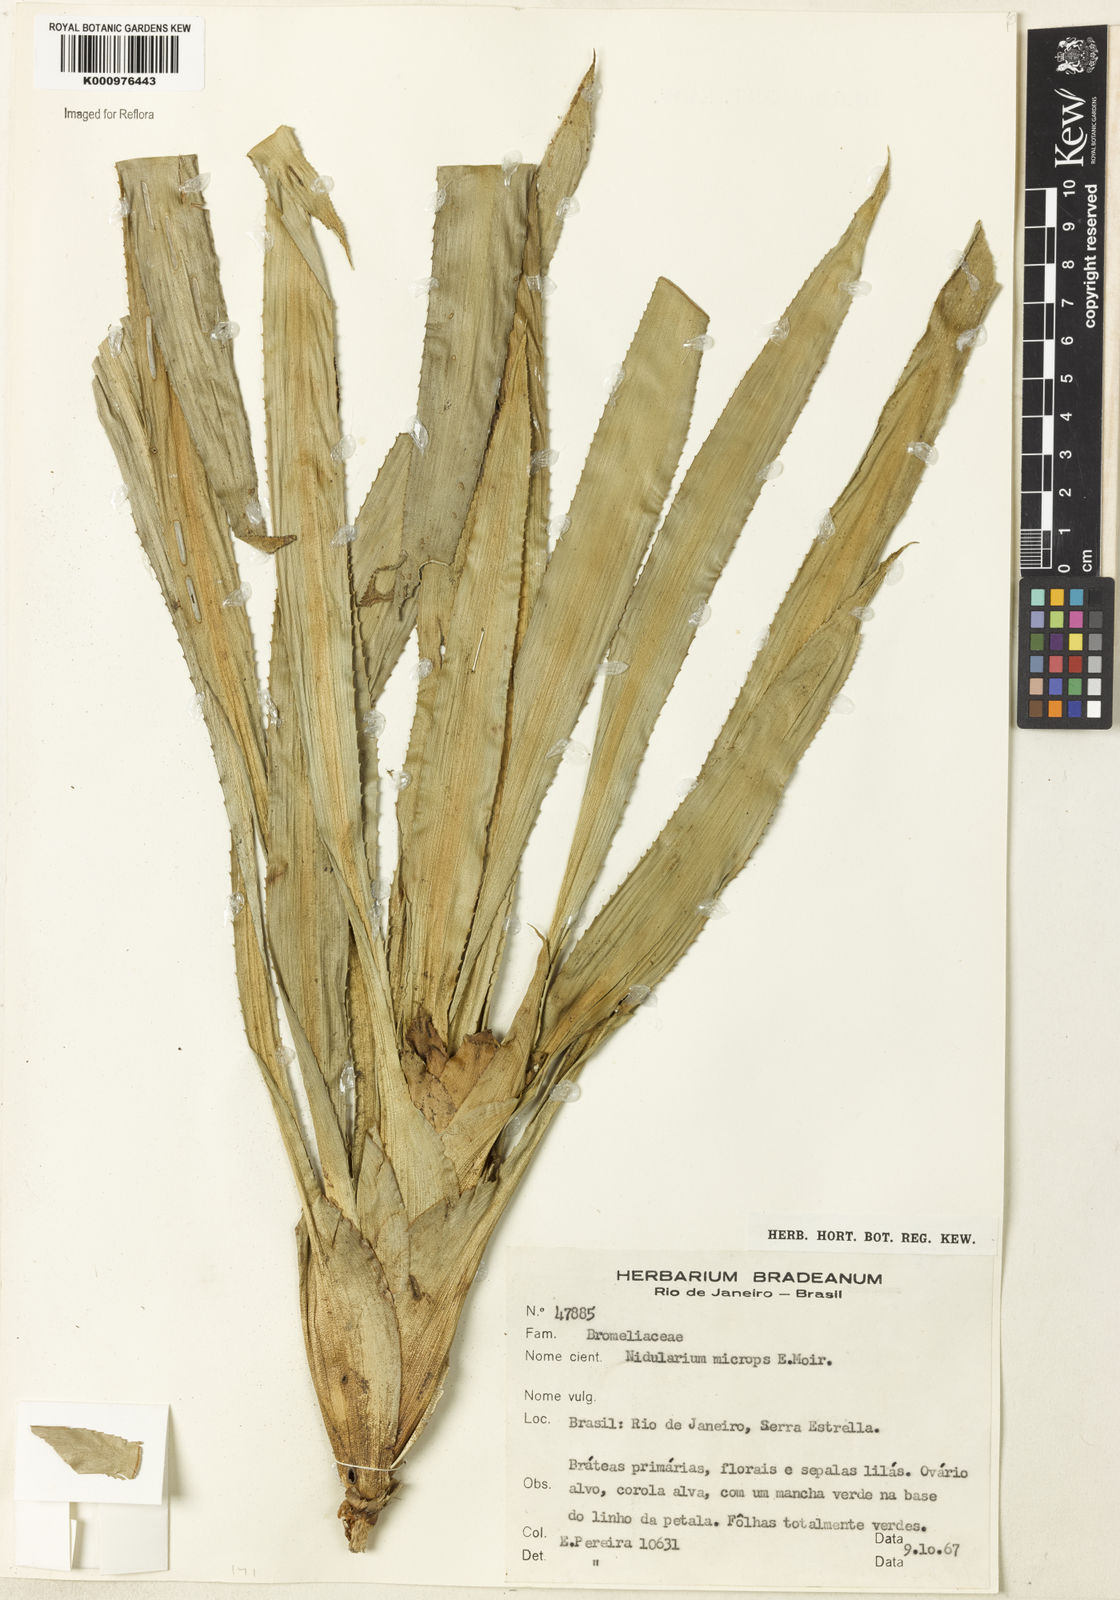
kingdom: Plantae
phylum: Tracheophyta
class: Liliopsida
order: Poales
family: Bromeliaceae
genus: Canistropsis
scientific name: Canistropsis microps
